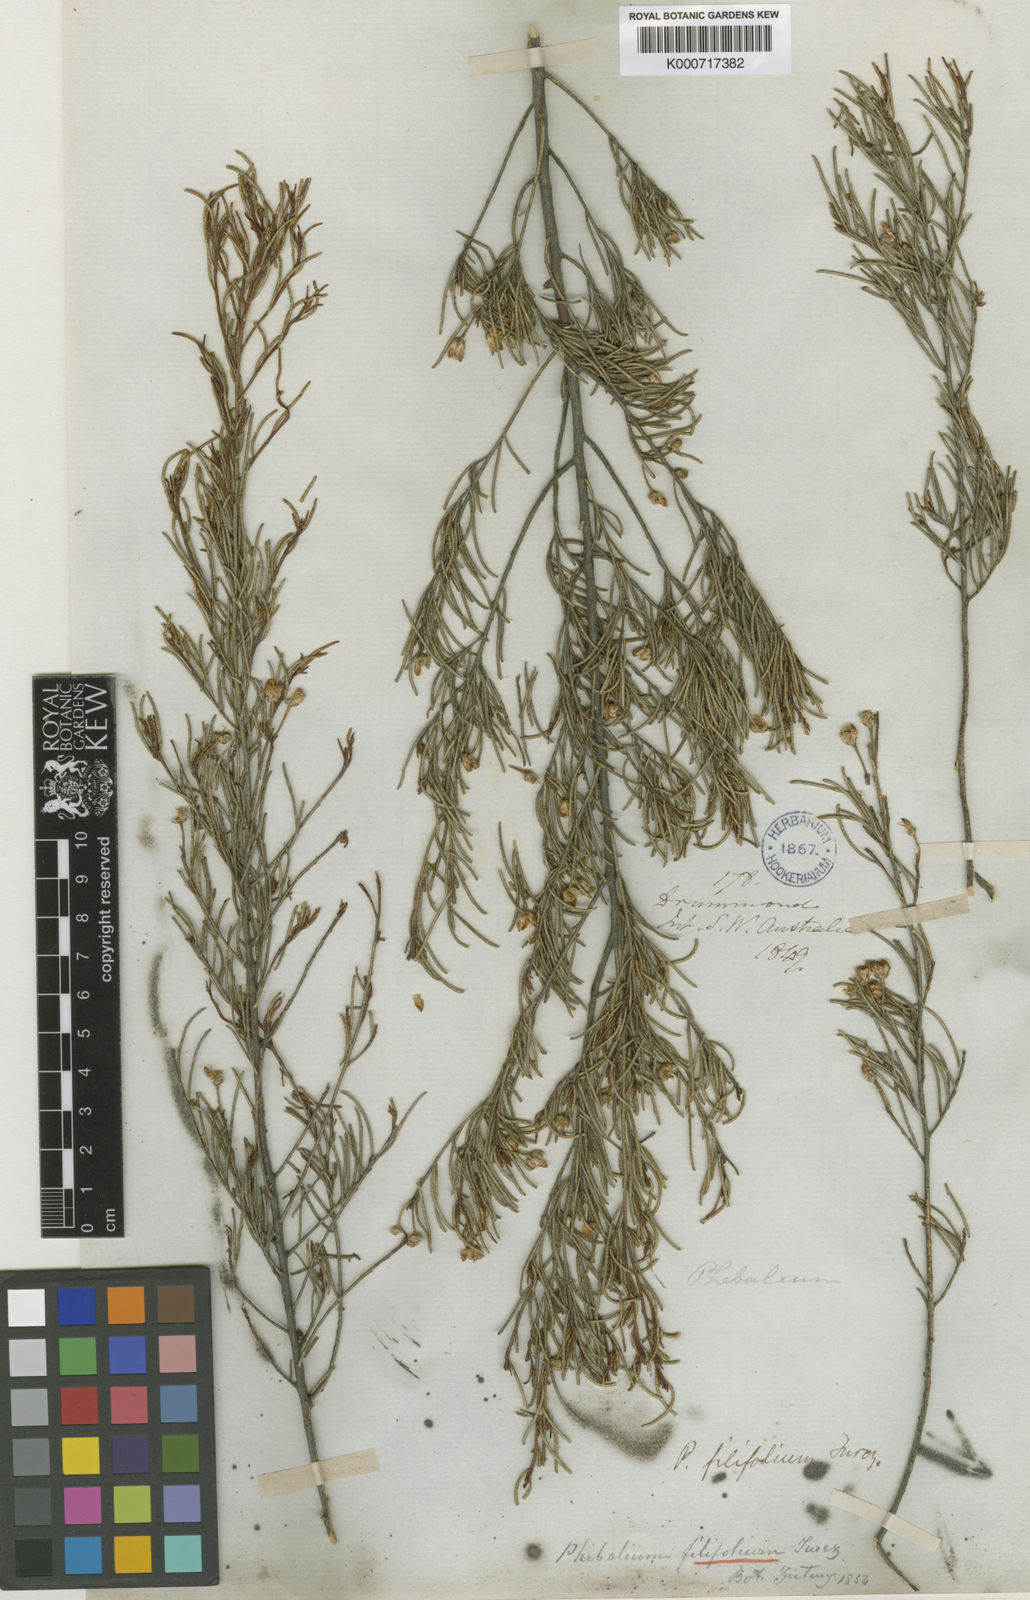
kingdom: Plantae
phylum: Tracheophyta
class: Magnoliopsida
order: Sapindales
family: Rutaceae
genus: Phebalium
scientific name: Phebalium filifolium
